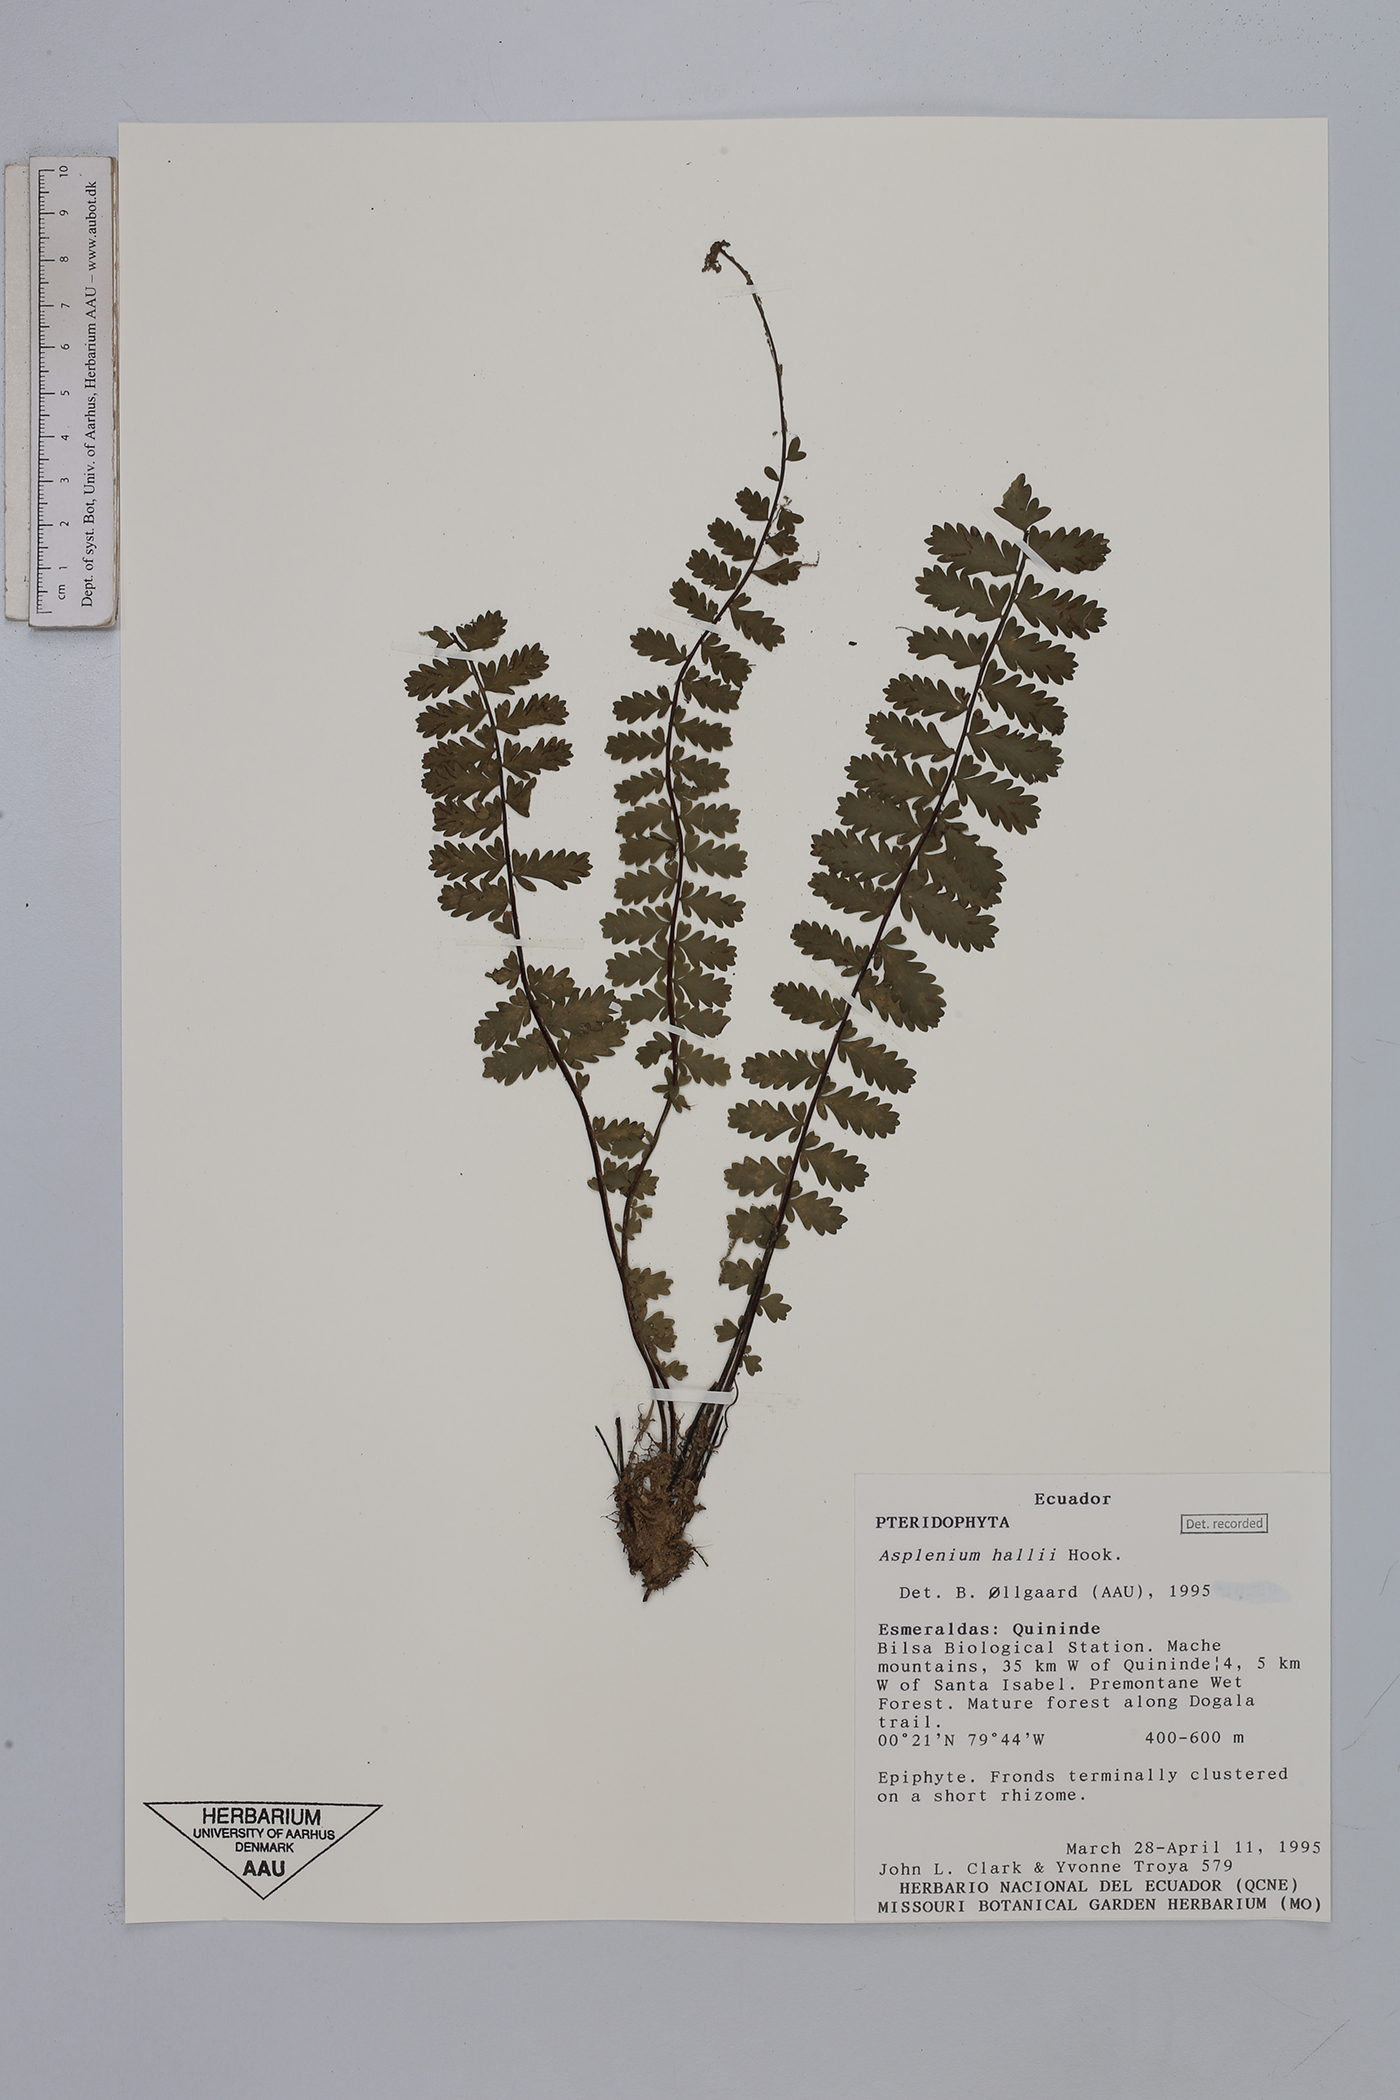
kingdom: Plantae
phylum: Tracheophyta
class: Polypodiopsida
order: Polypodiales
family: Aspleniaceae
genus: Asplenium
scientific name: Asplenium hallii
